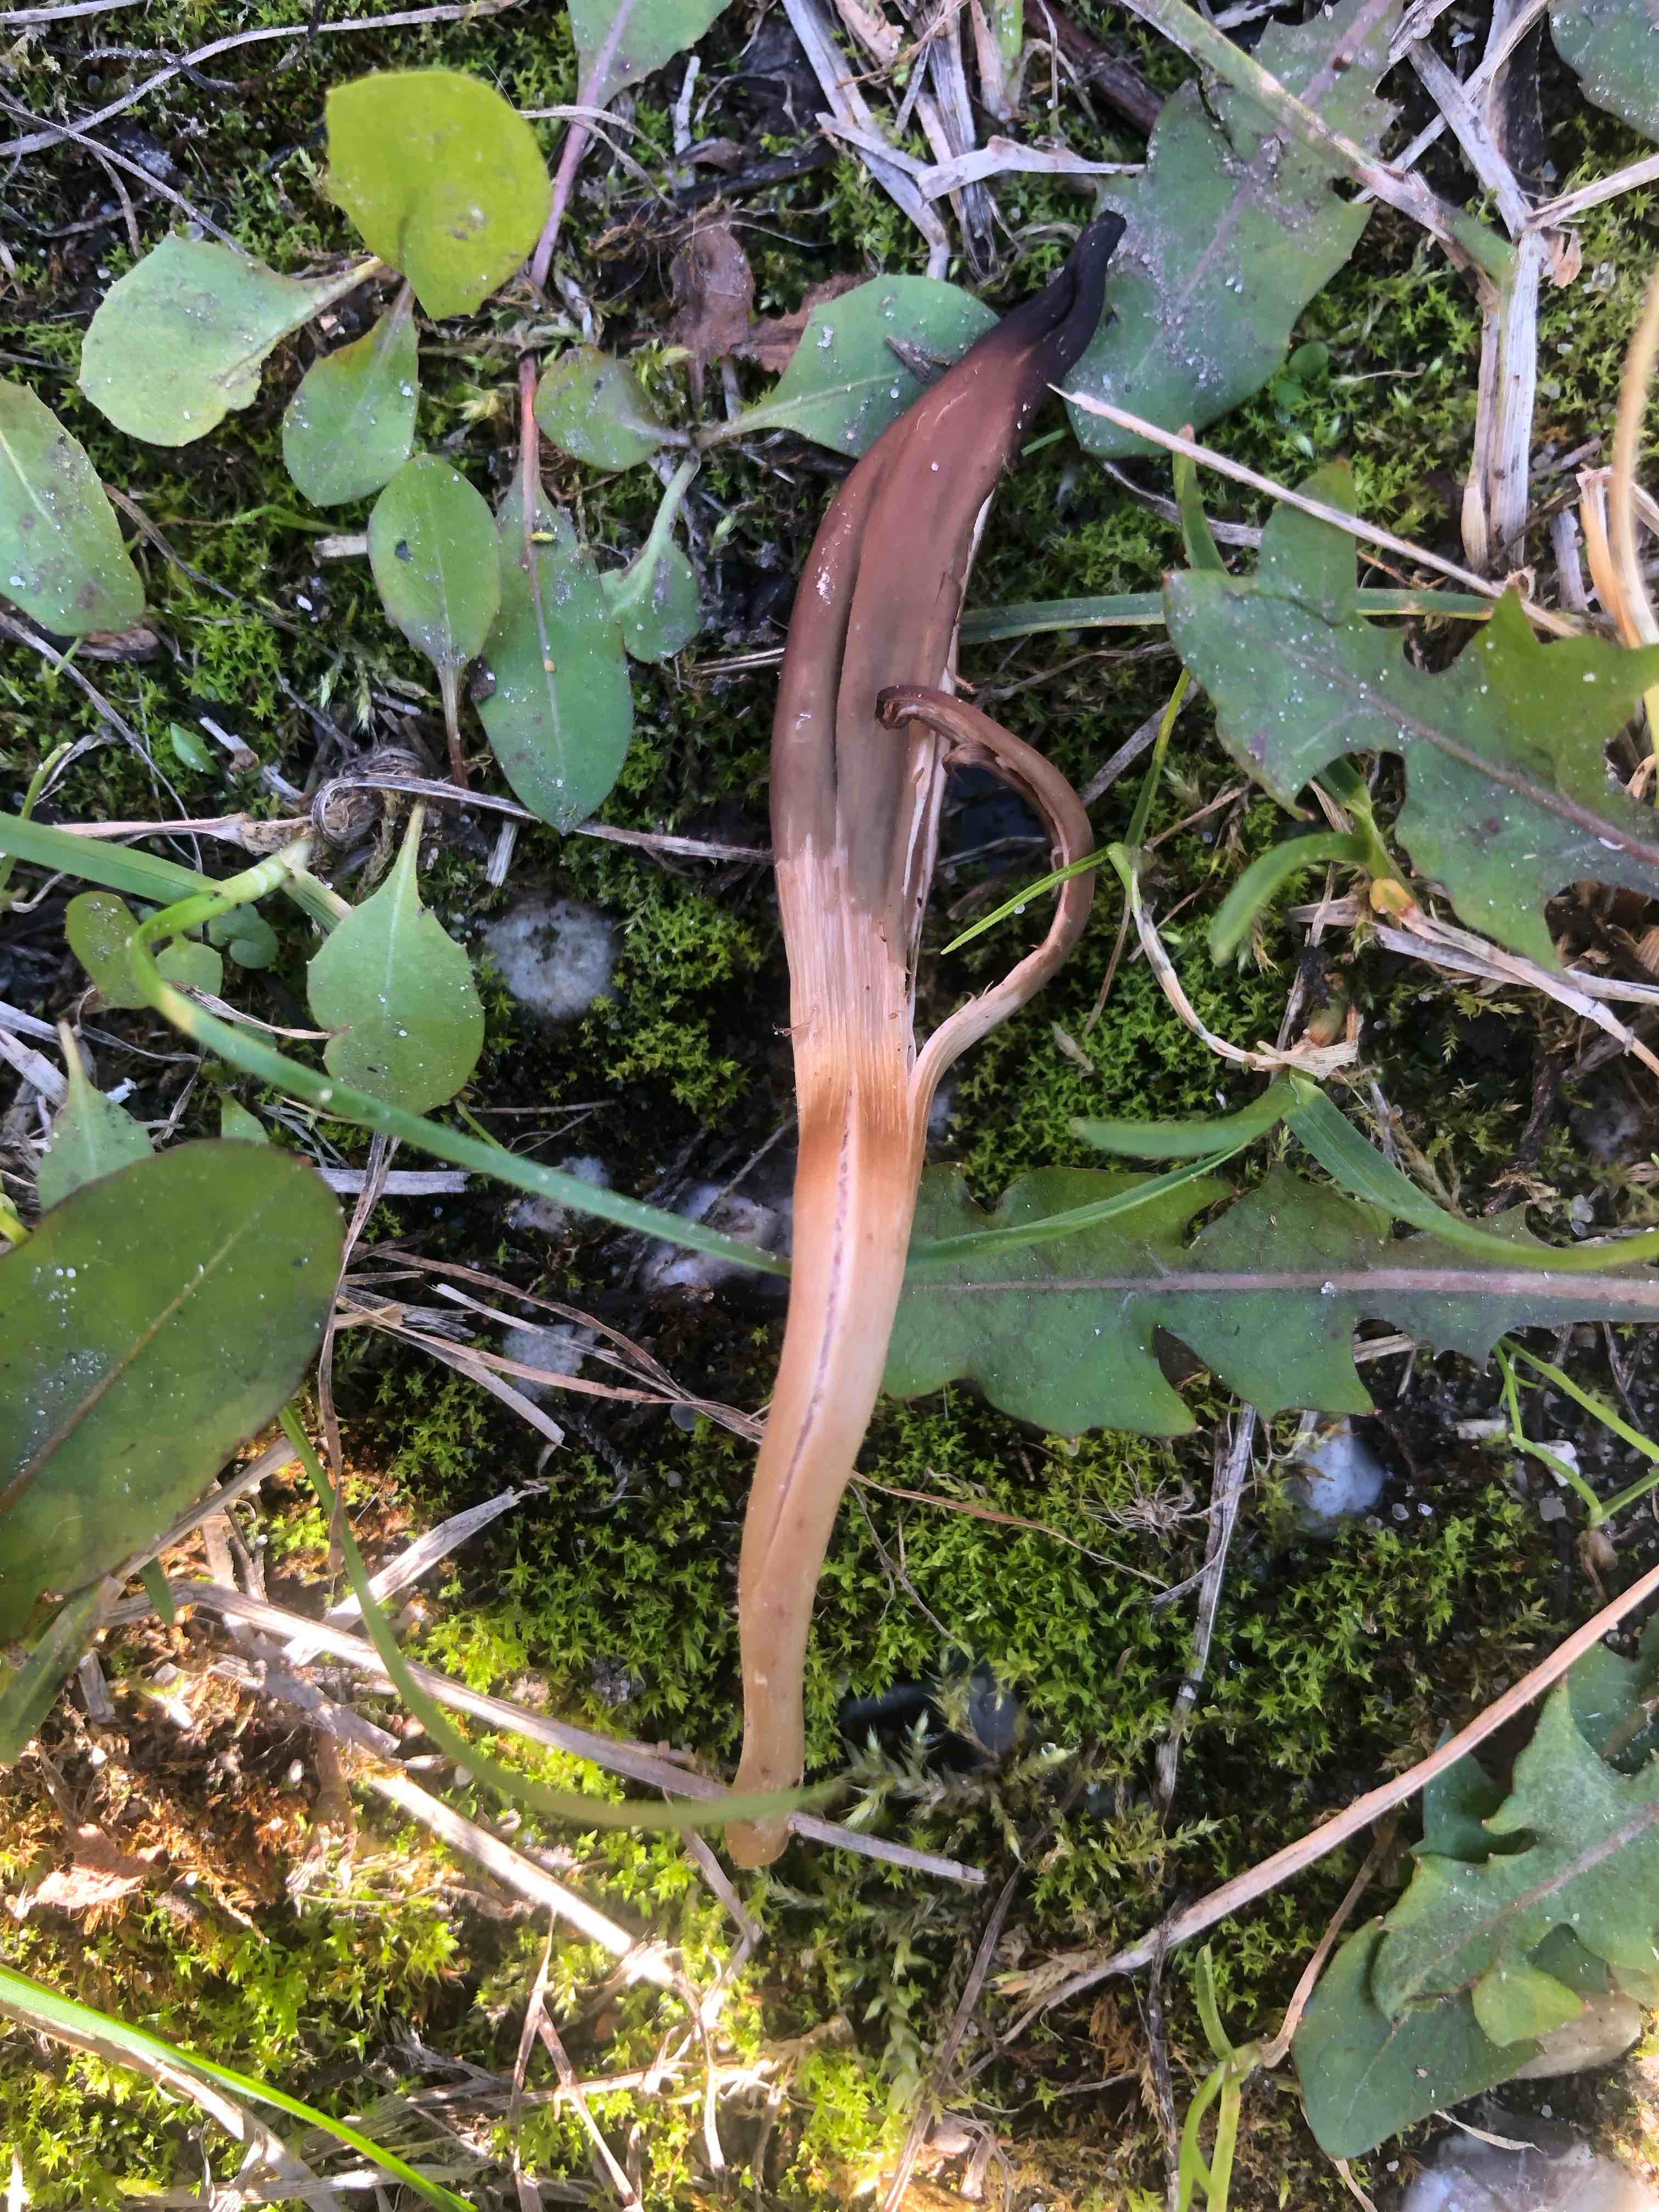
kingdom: Fungi
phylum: Ascomycota
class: Leotiomycetes
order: Leotiales
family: Leotiaceae
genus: Microglossum
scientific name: Microglossum olivaceum
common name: olivenbrun farvetunge
